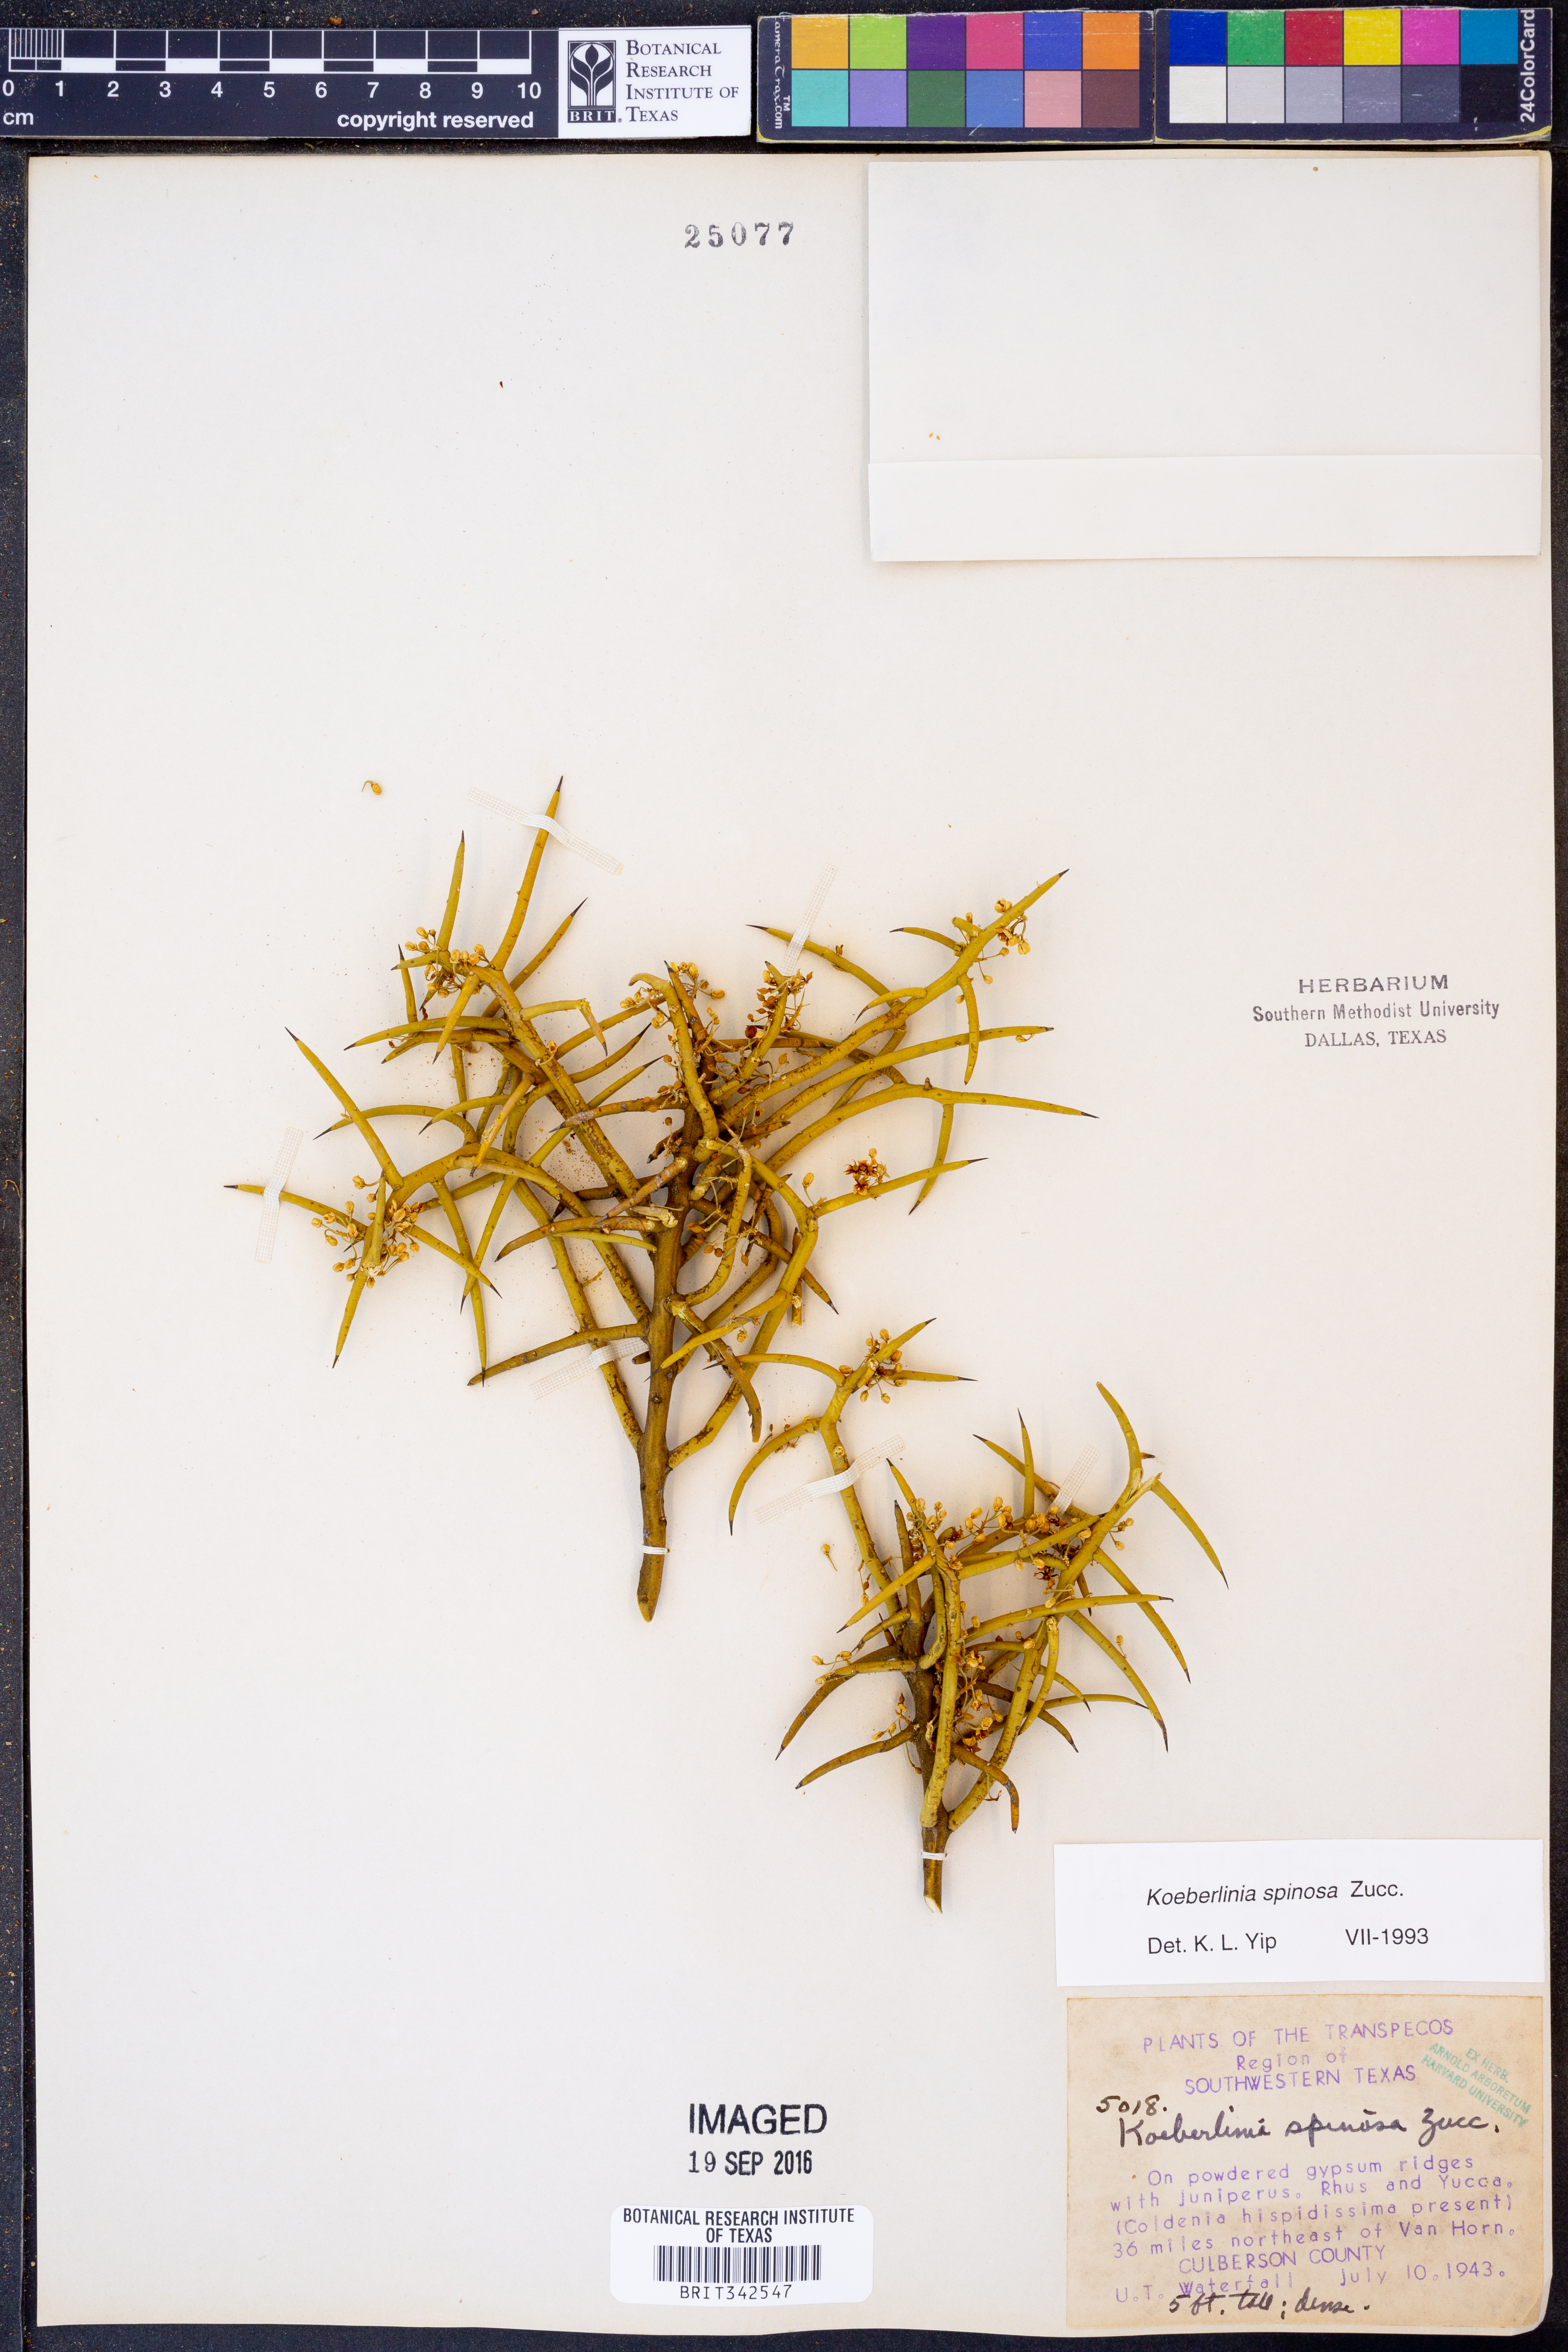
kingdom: Plantae
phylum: Tracheophyta
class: Magnoliopsida
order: Brassicales
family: Koeberliniaceae
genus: Koeberlinia
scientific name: Koeberlinia spinosa
